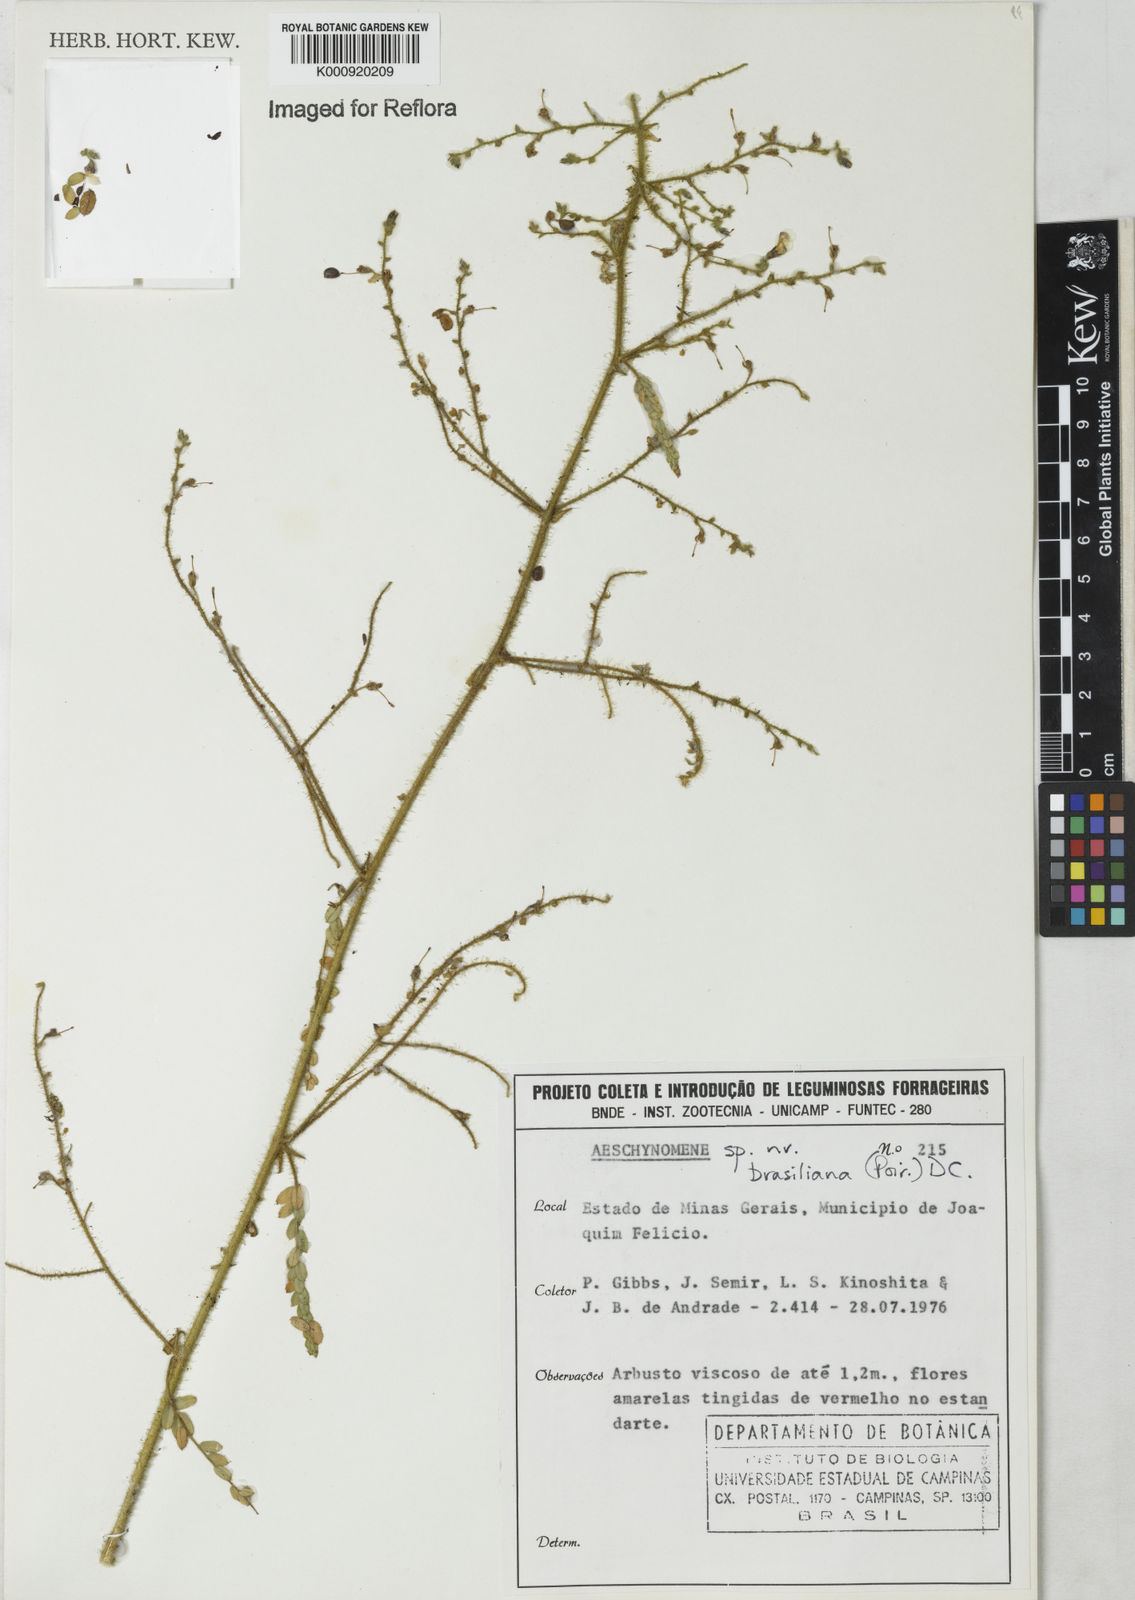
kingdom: Plantae
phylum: Tracheophyta
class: Magnoliopsida
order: Fabales
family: Fabaceae
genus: Ctenodon
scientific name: Ctenodon brasilianus
